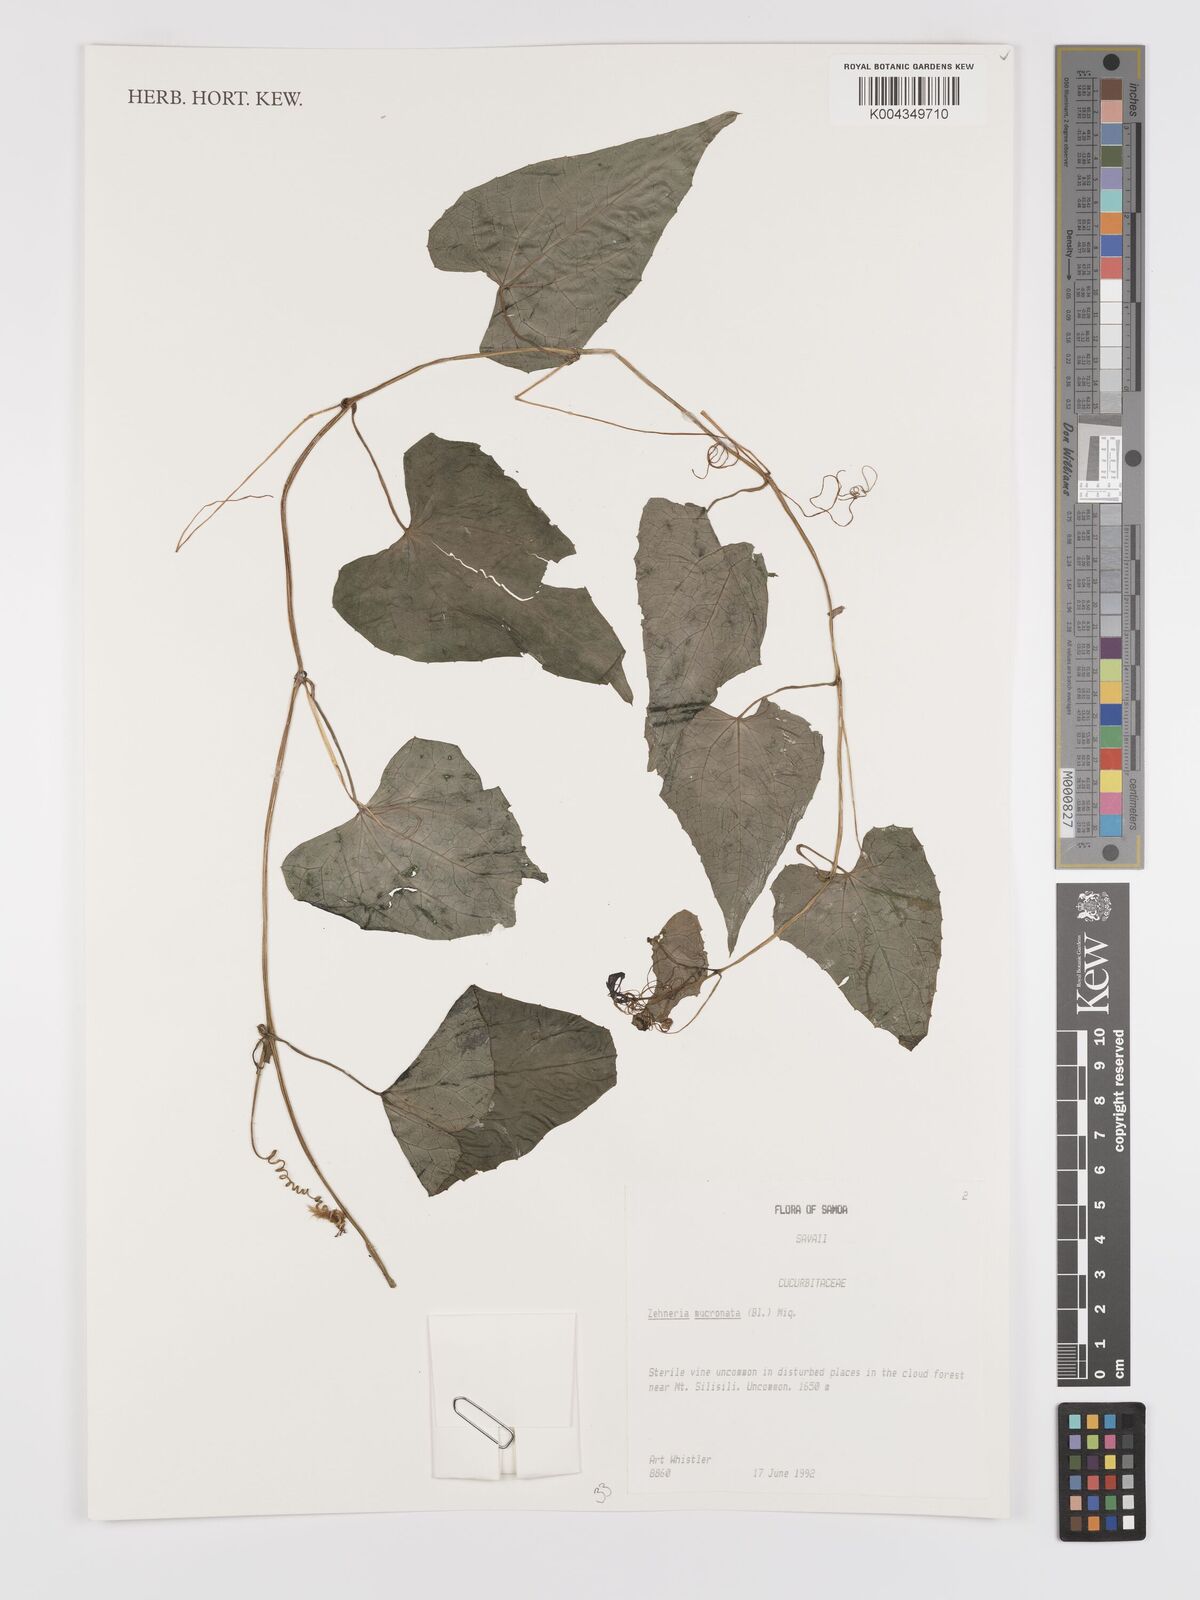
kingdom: Plantae
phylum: Tracheophyta
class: Magnoliopsida
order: Cucurbitales
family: Cucurbitaceae
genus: Zehneria
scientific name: Zehneria mucronata
